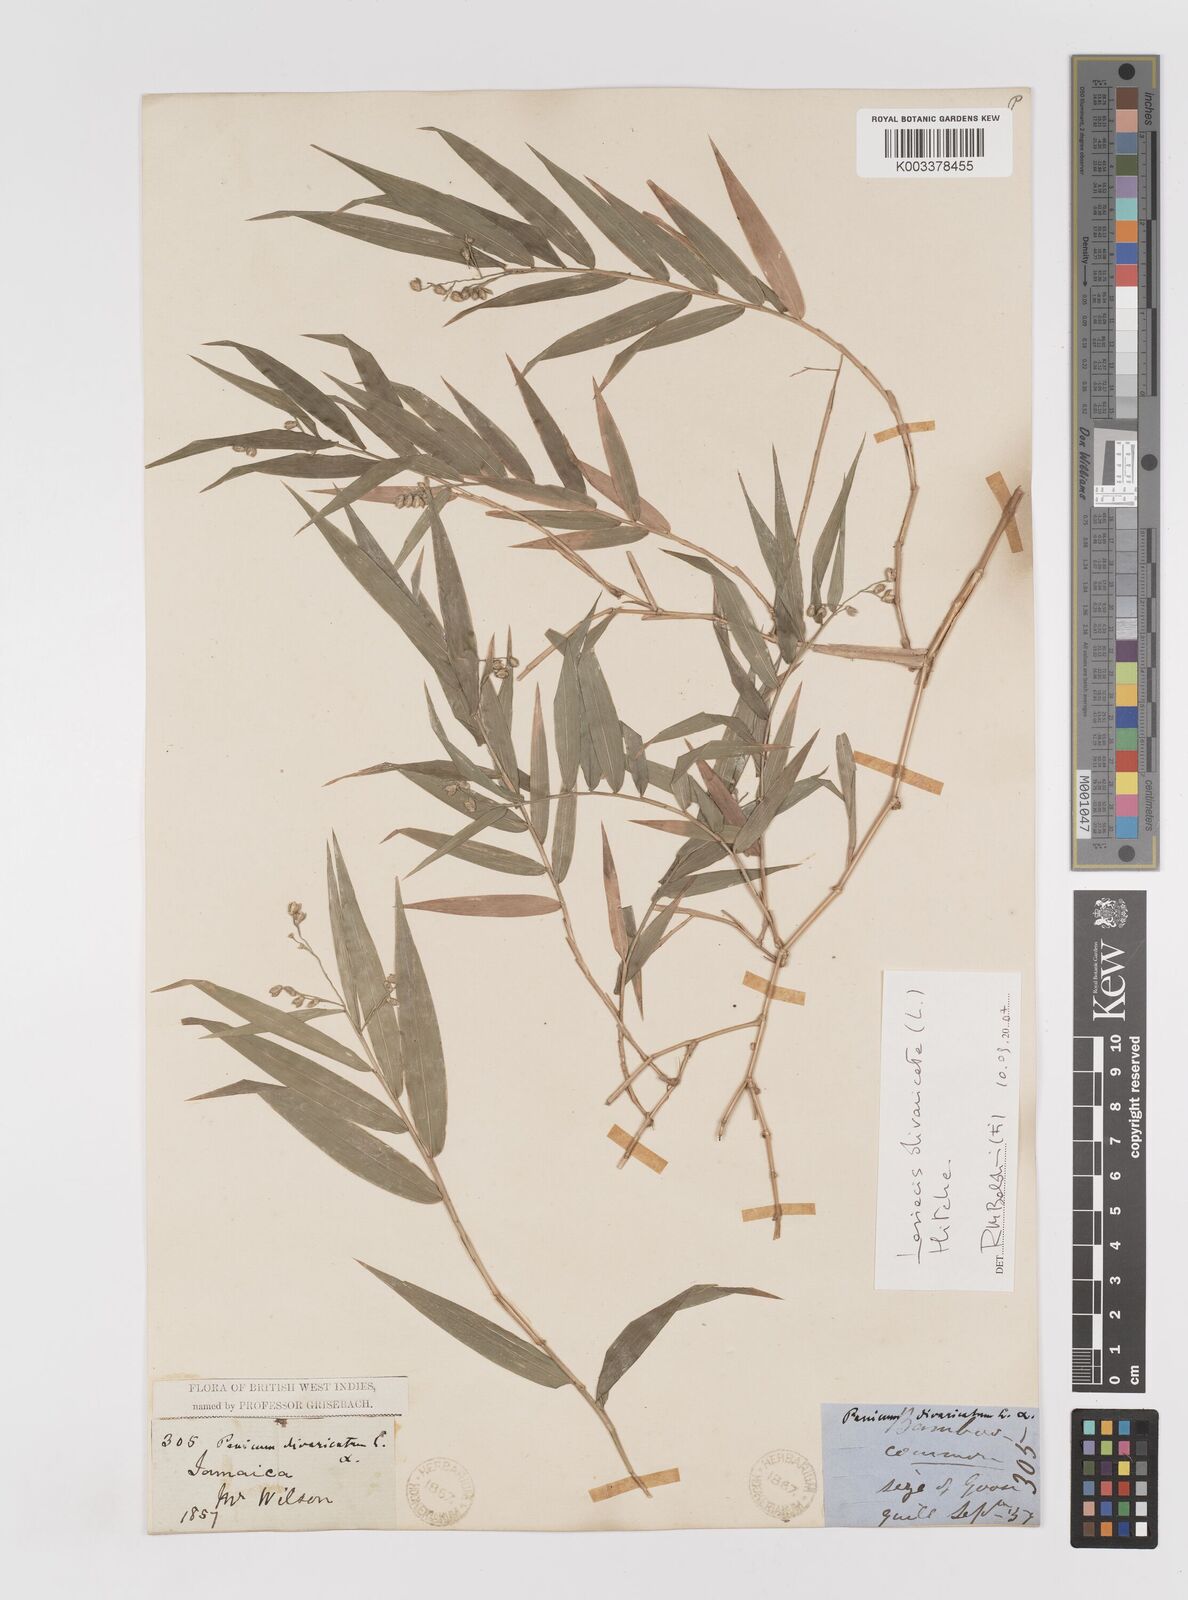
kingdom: Plantae
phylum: Tracheophyta
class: Liliopsida
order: Poales
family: Poaceae
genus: Lasiacis
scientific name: Lasiacis divaricata
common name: Smallcane
